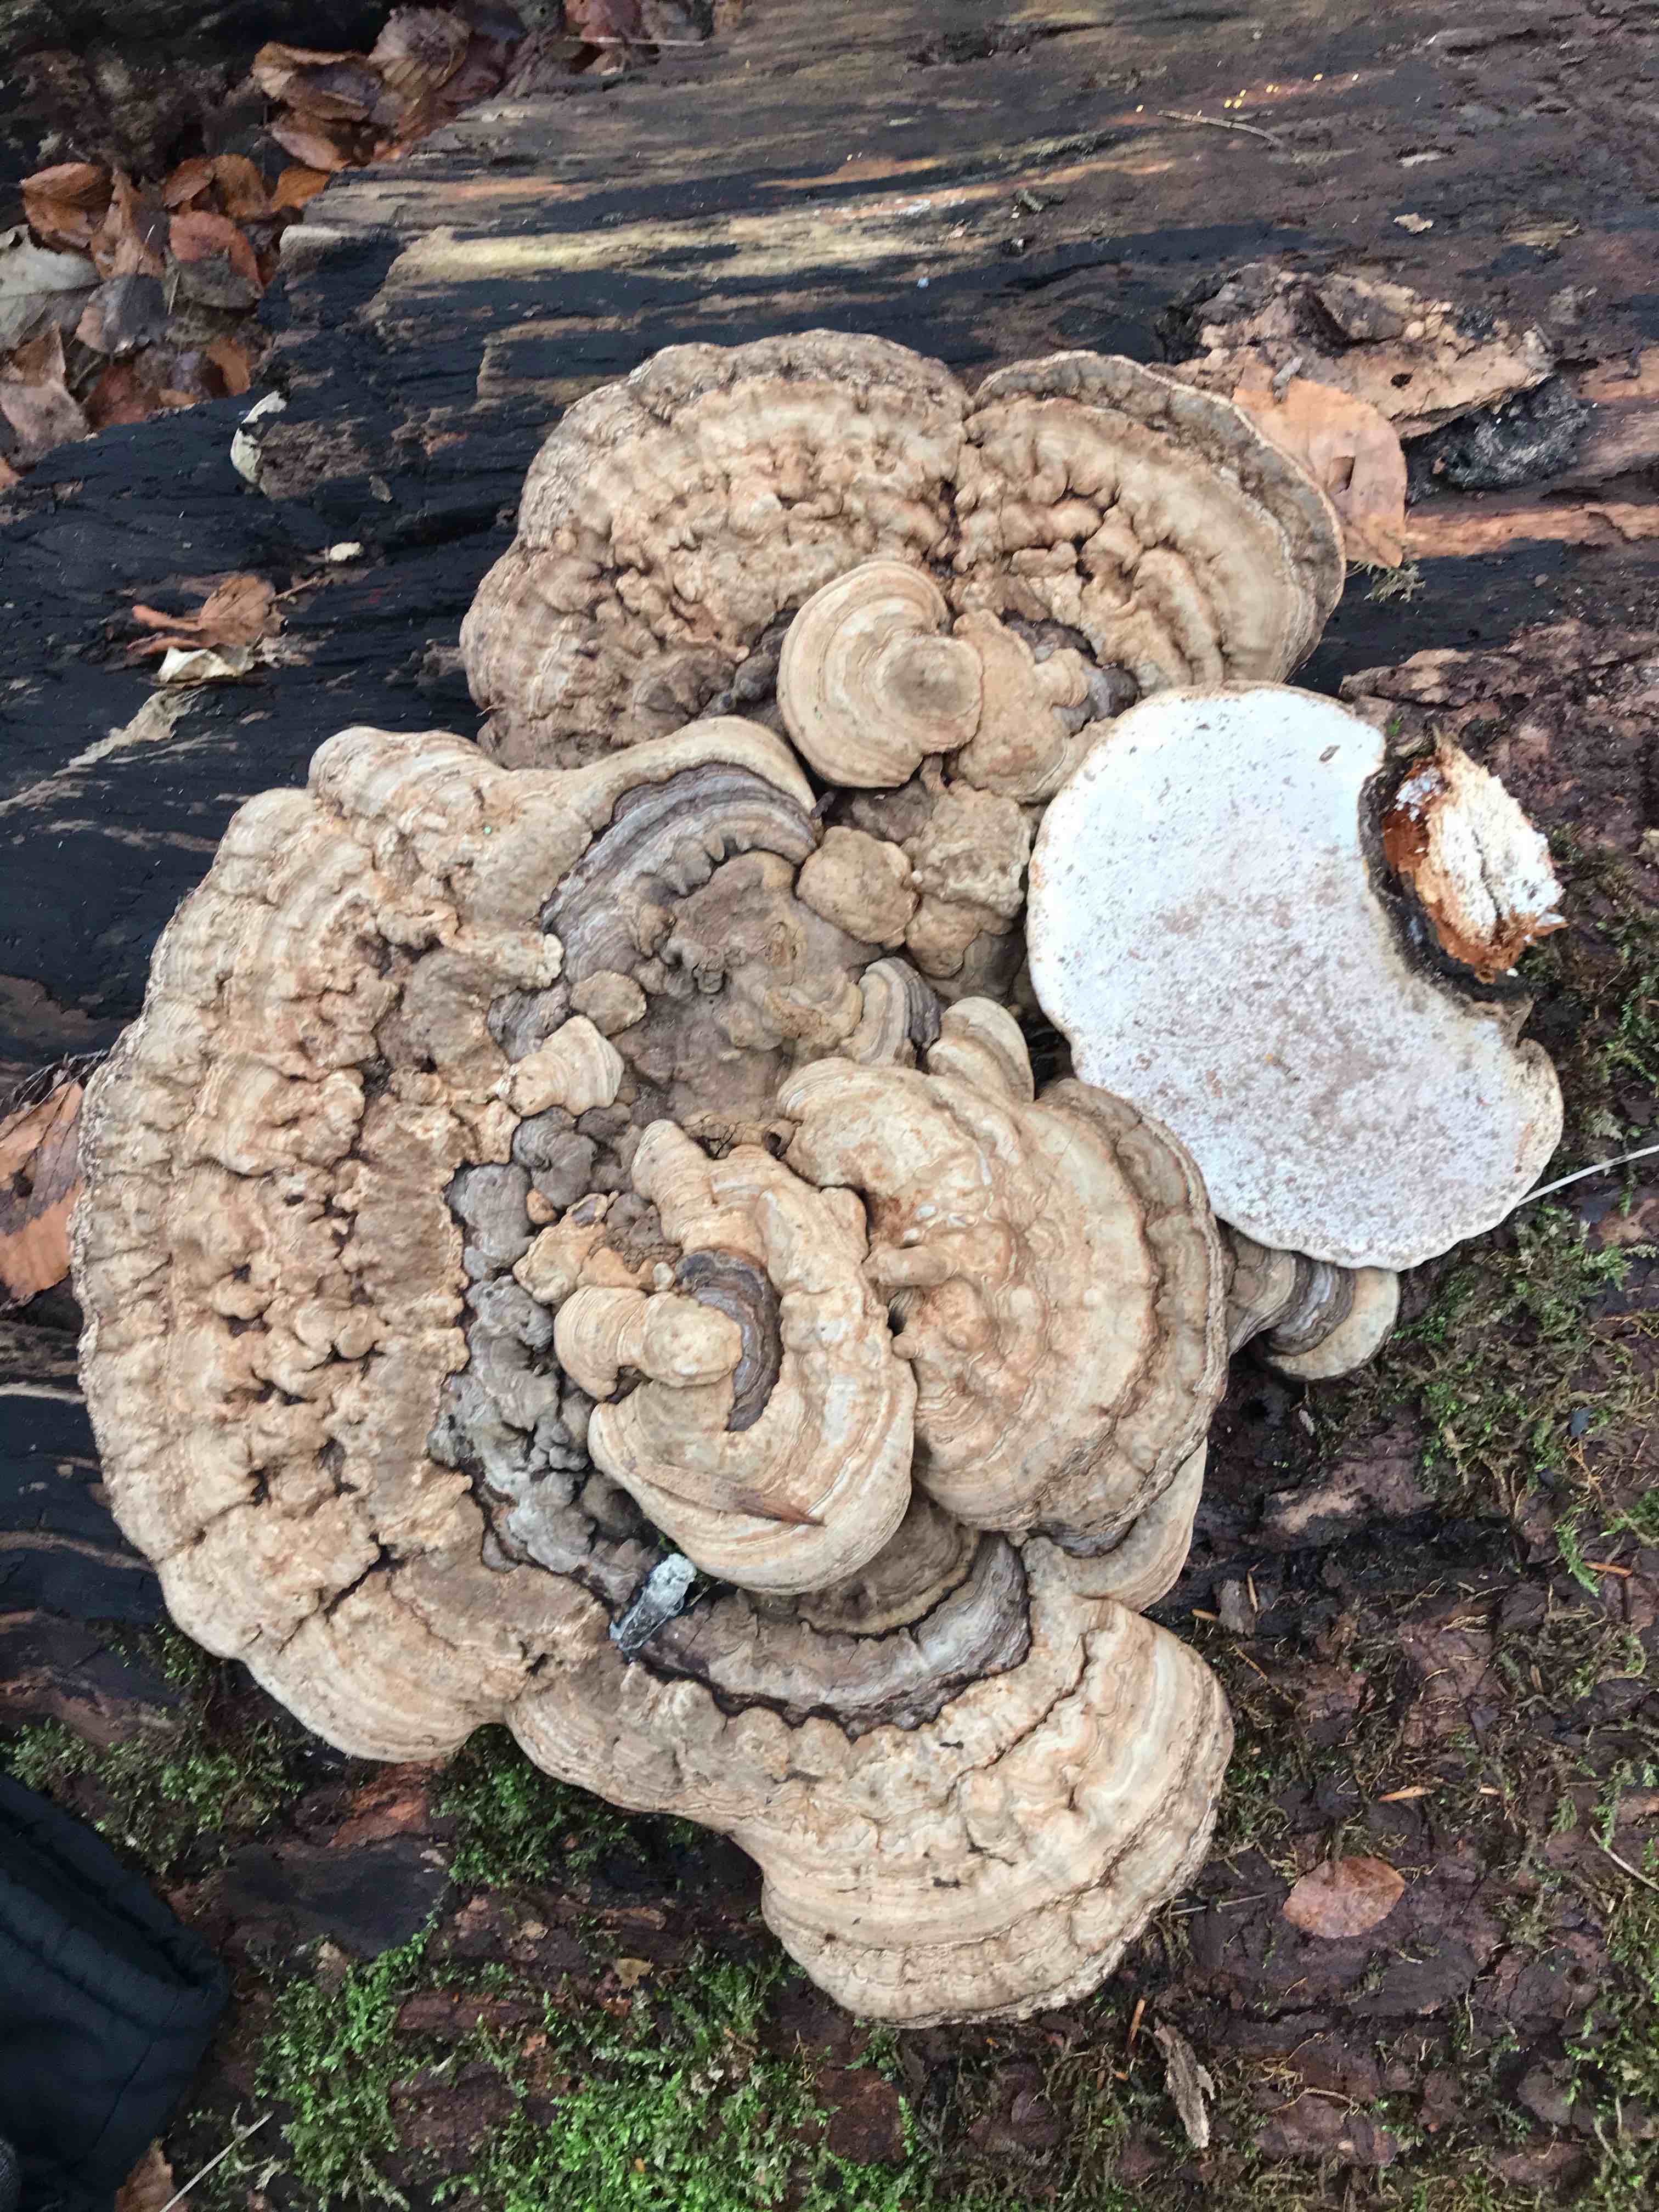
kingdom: Fungi
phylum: Basidiomycota
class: Agaricomycetes
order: Polyporales
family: Polyporaceae
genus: Ganoderma
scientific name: Ganoderma applanatum
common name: flad lakporesvamp
